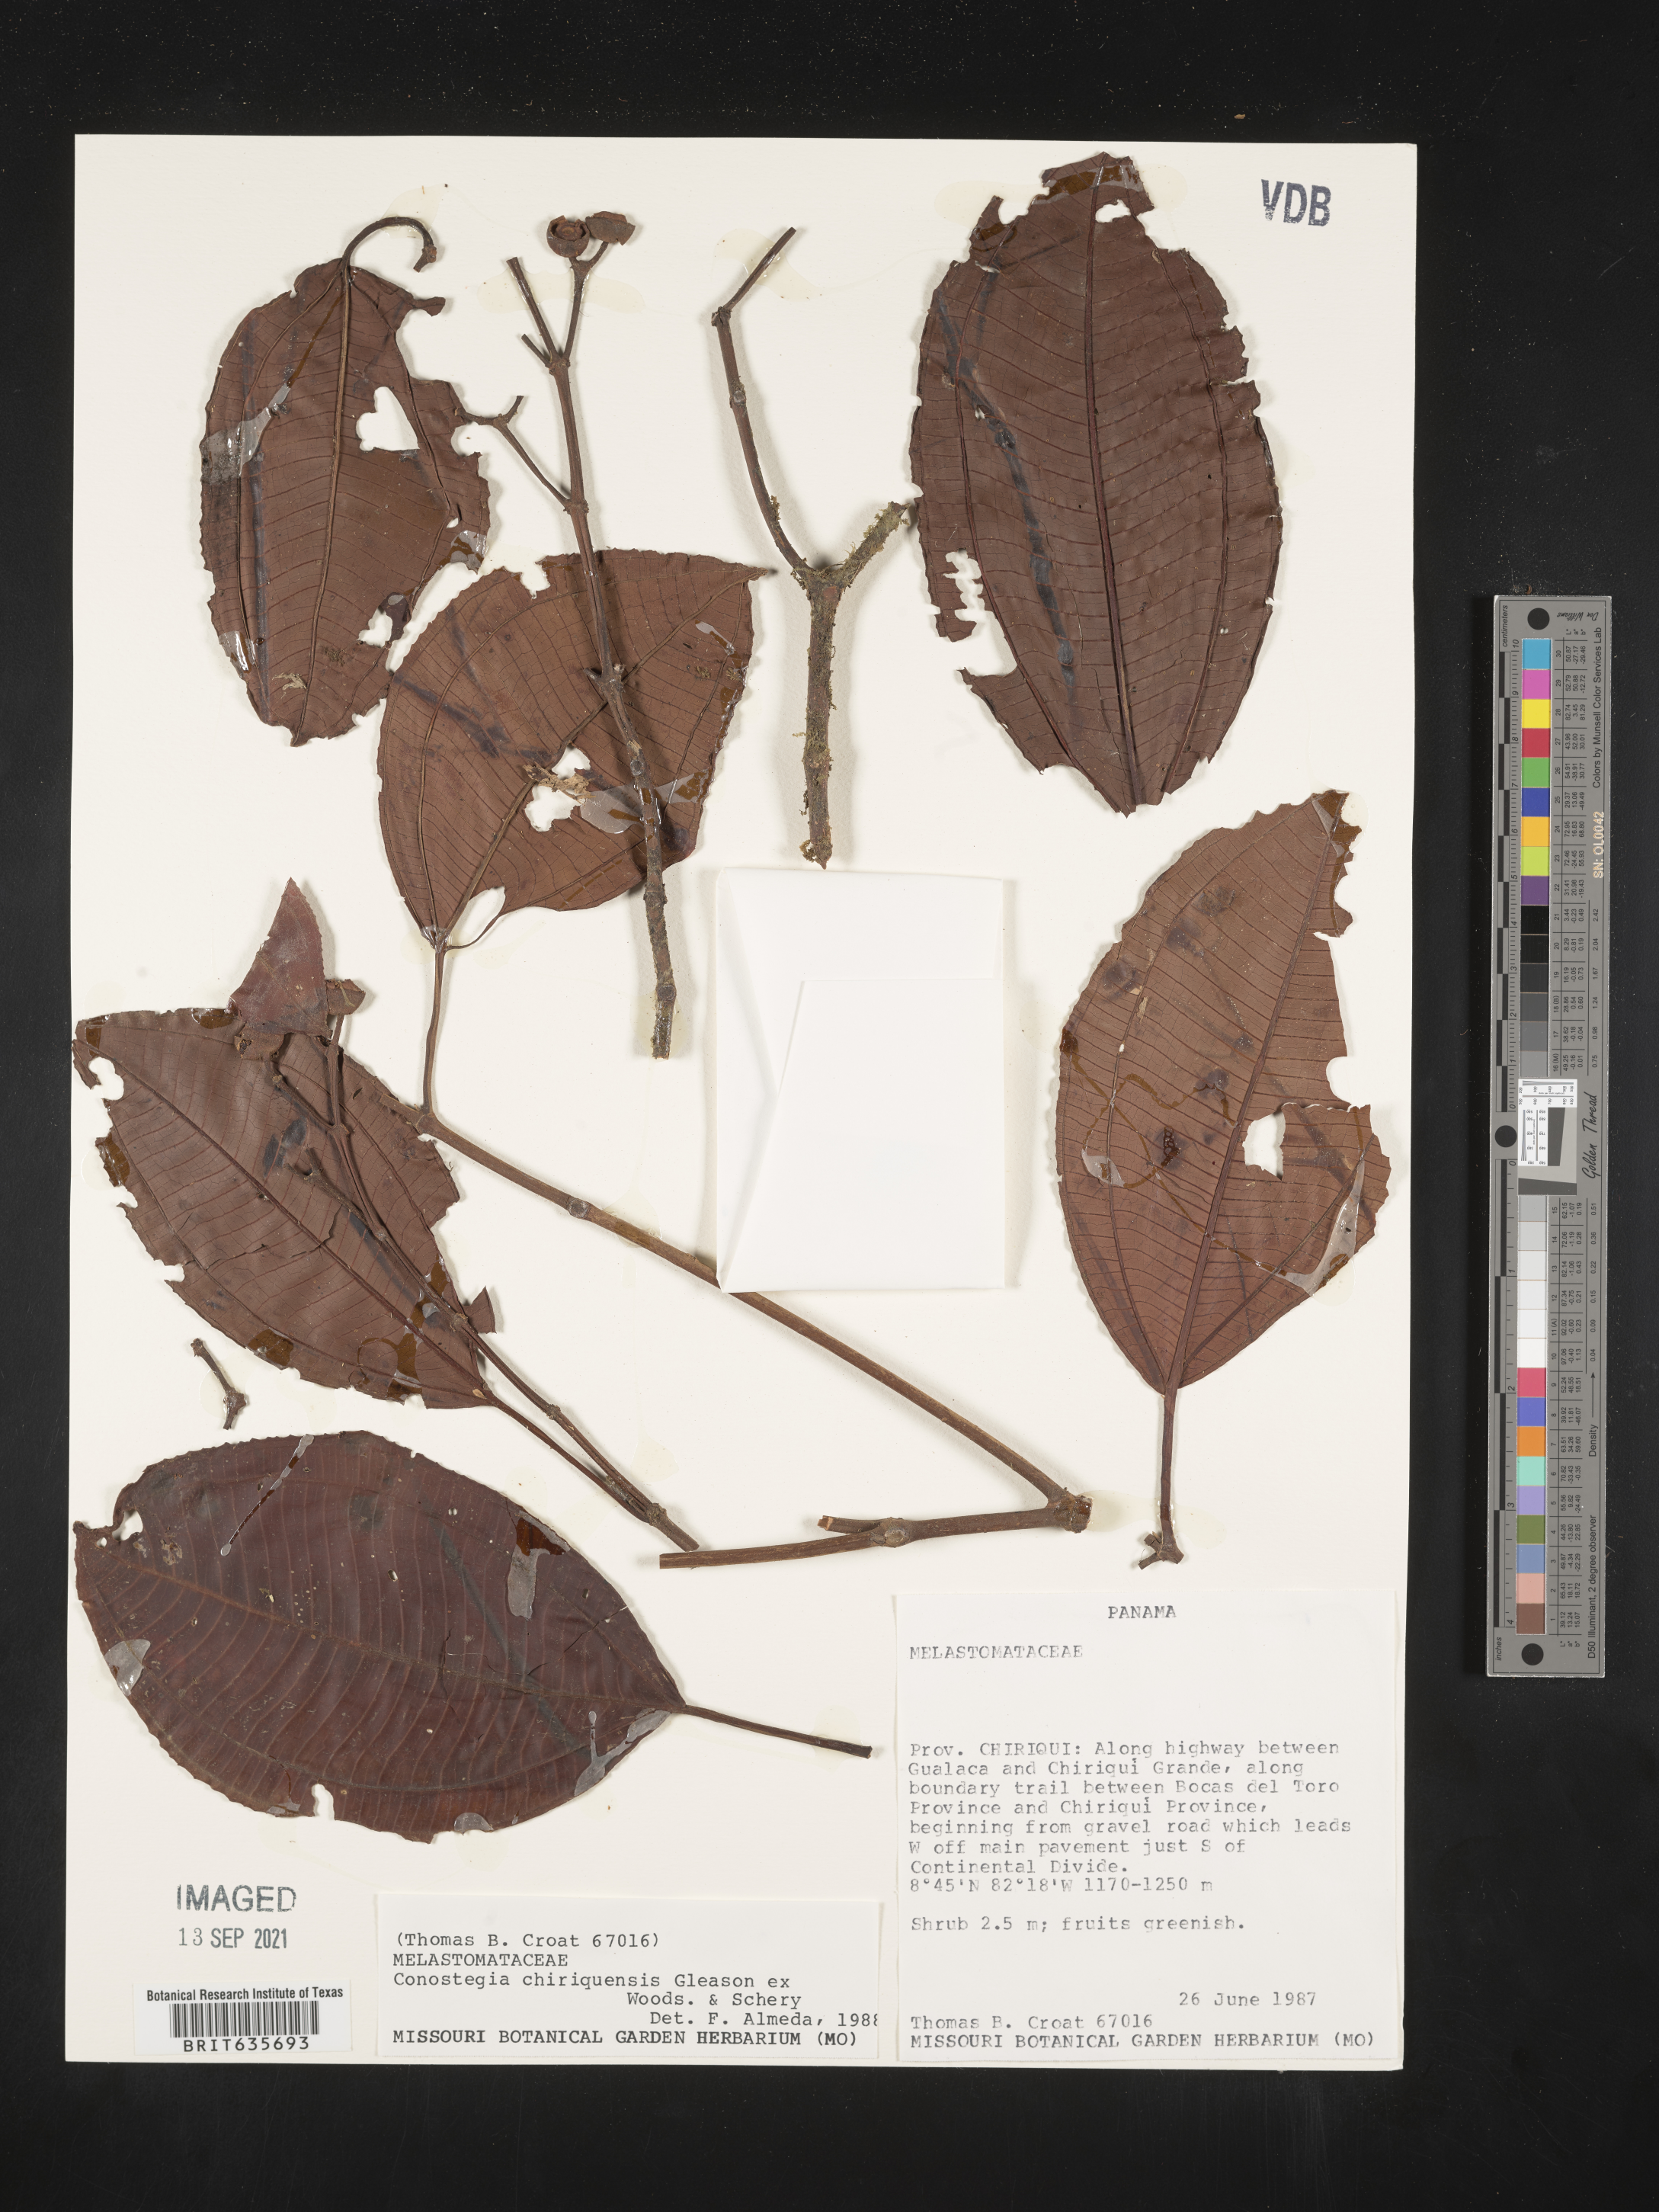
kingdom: Plantae
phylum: Tracheophyta
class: Magnoliopsida
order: Myrtales
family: Melastomataceae
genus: Miconia
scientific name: Miconia
